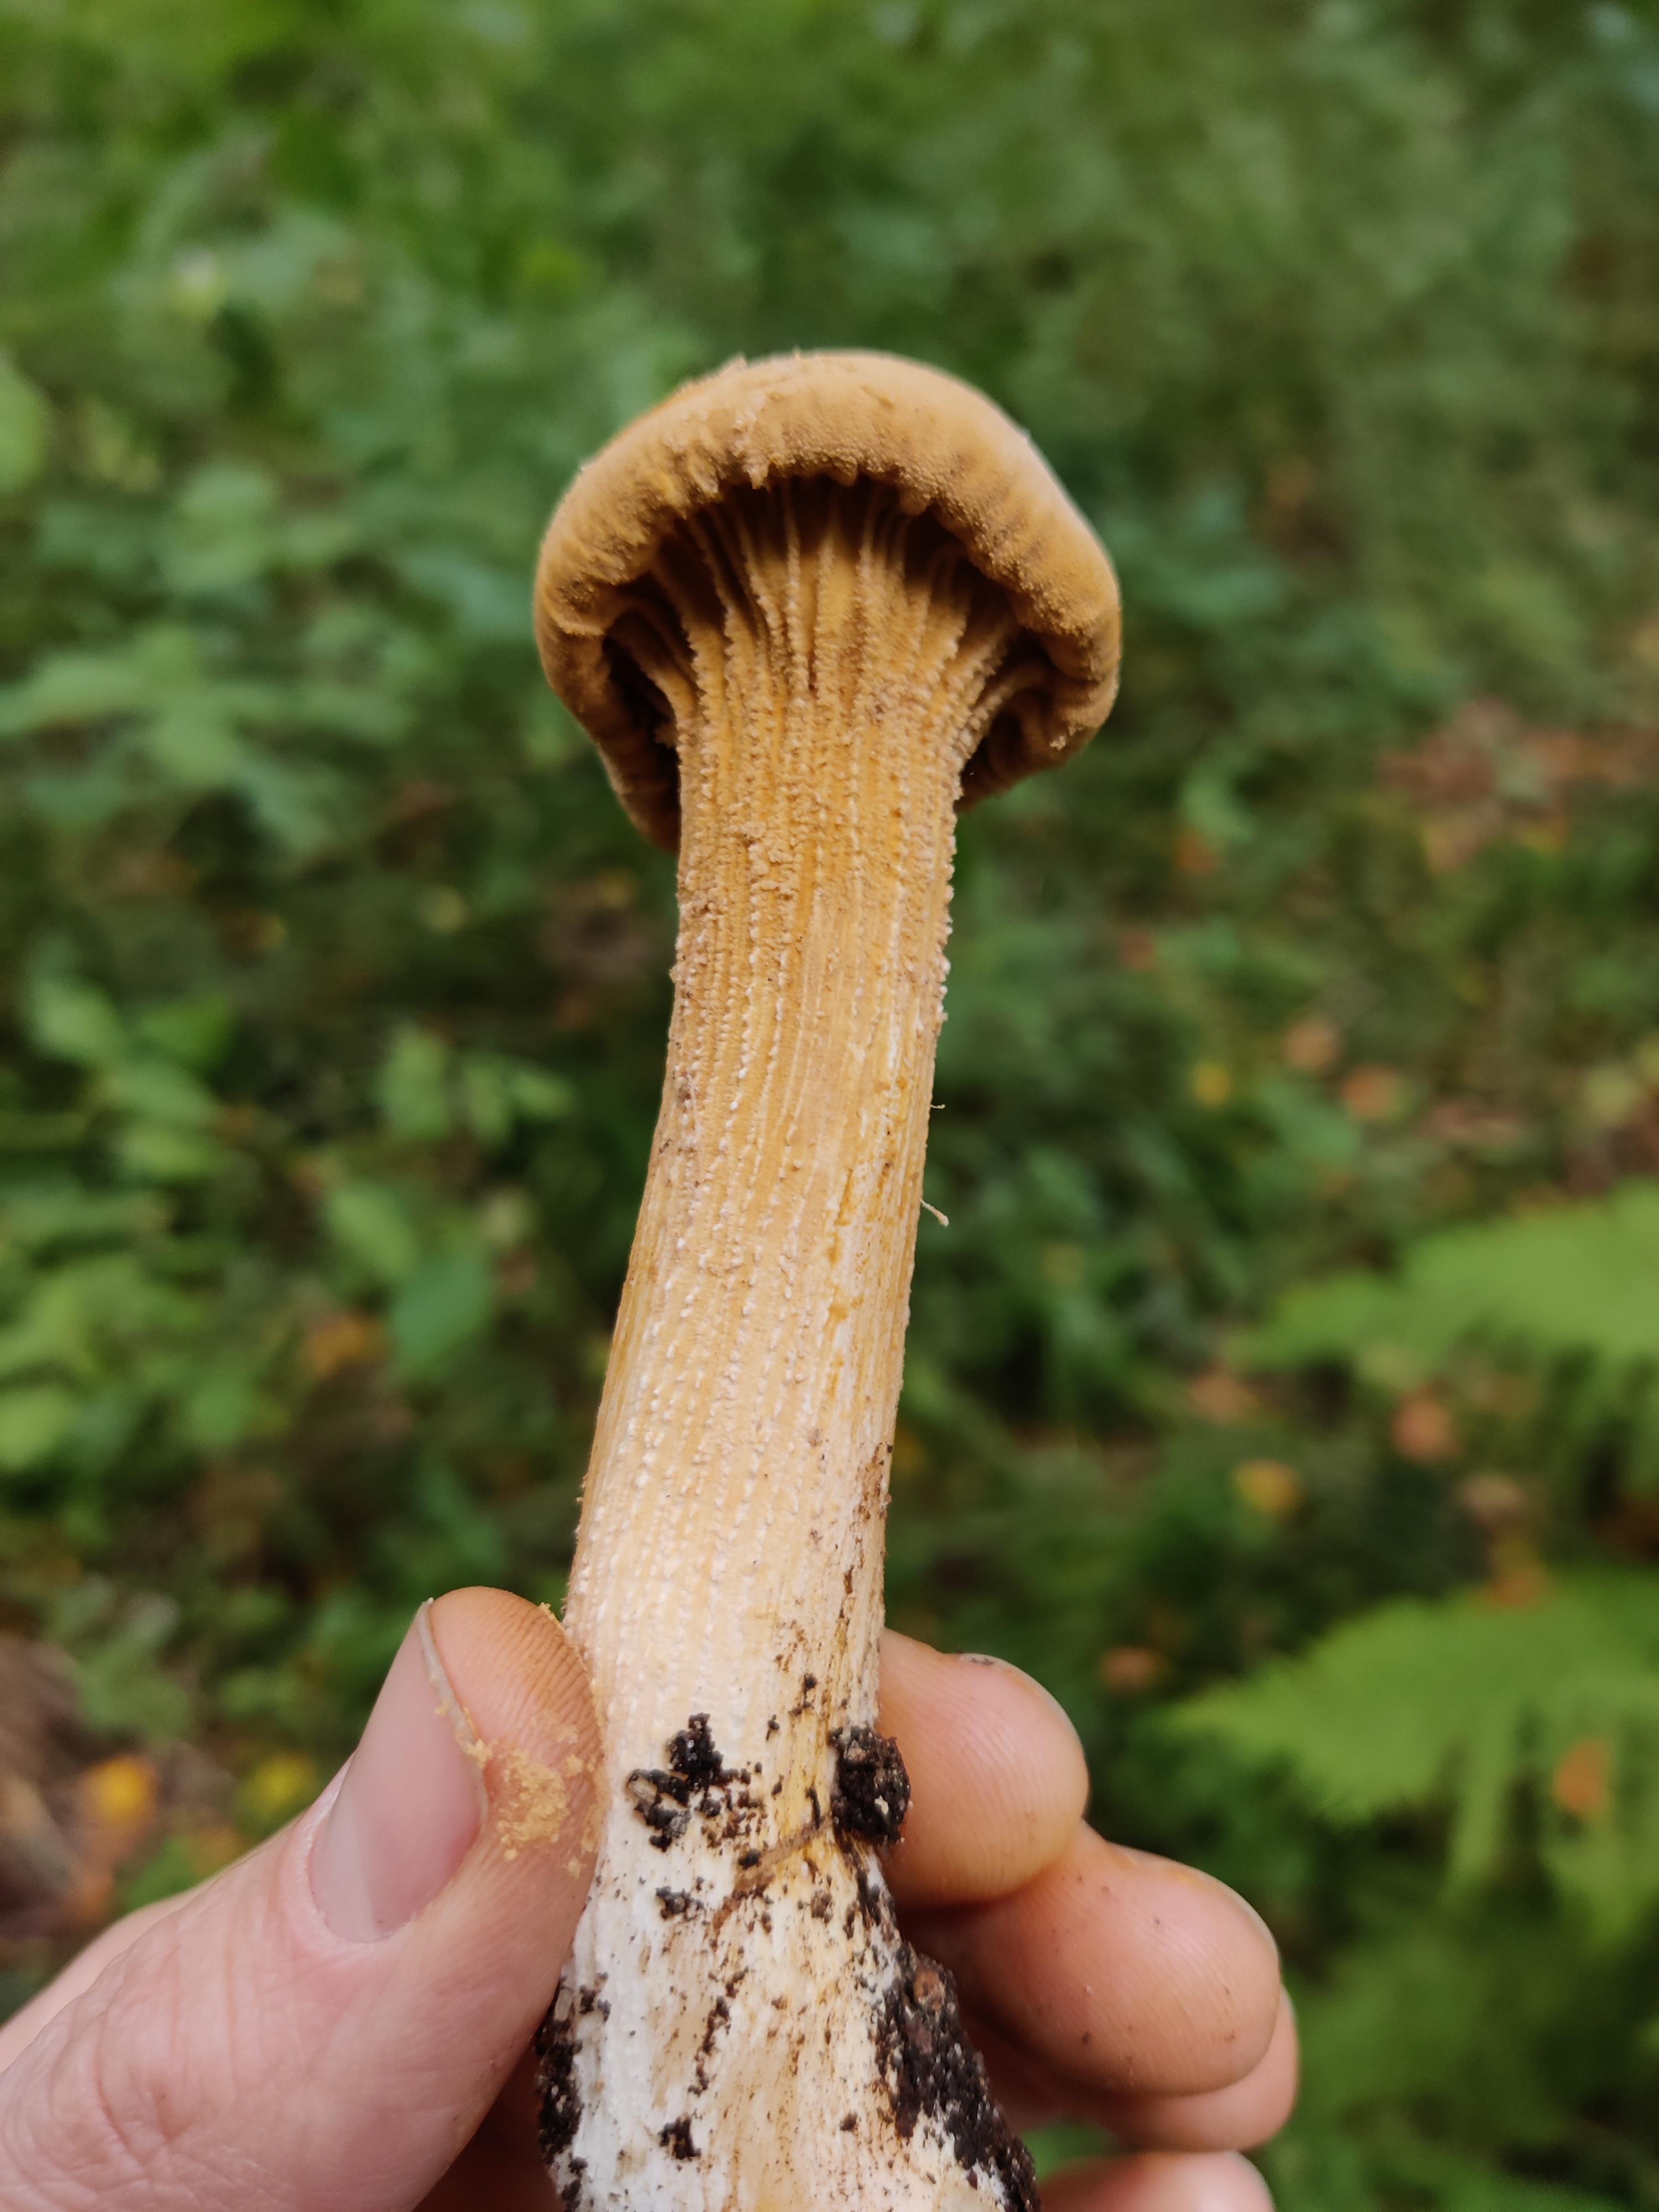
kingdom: Fungi
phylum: Basidiomycota
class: Agaricomycetes
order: Agaricales
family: Tricholomataceae
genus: Phaeolepiota
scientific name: Phaeolepiota aurea
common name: gyldenhat
